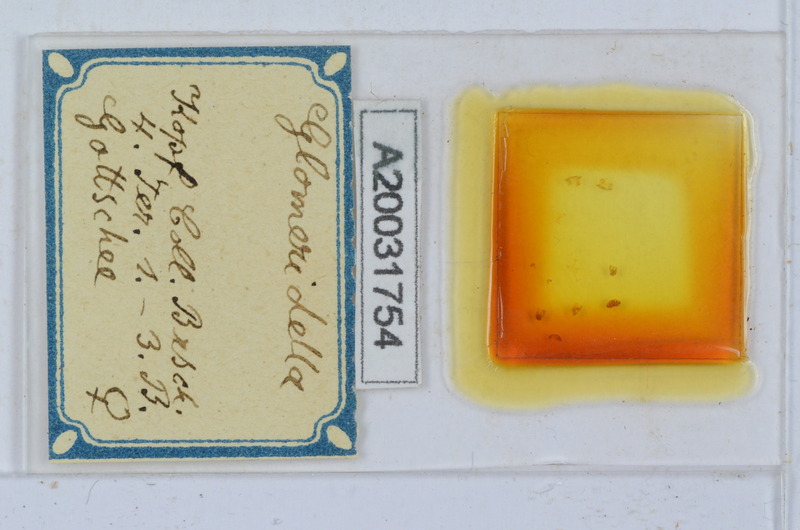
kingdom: Animalia
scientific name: Animalia
